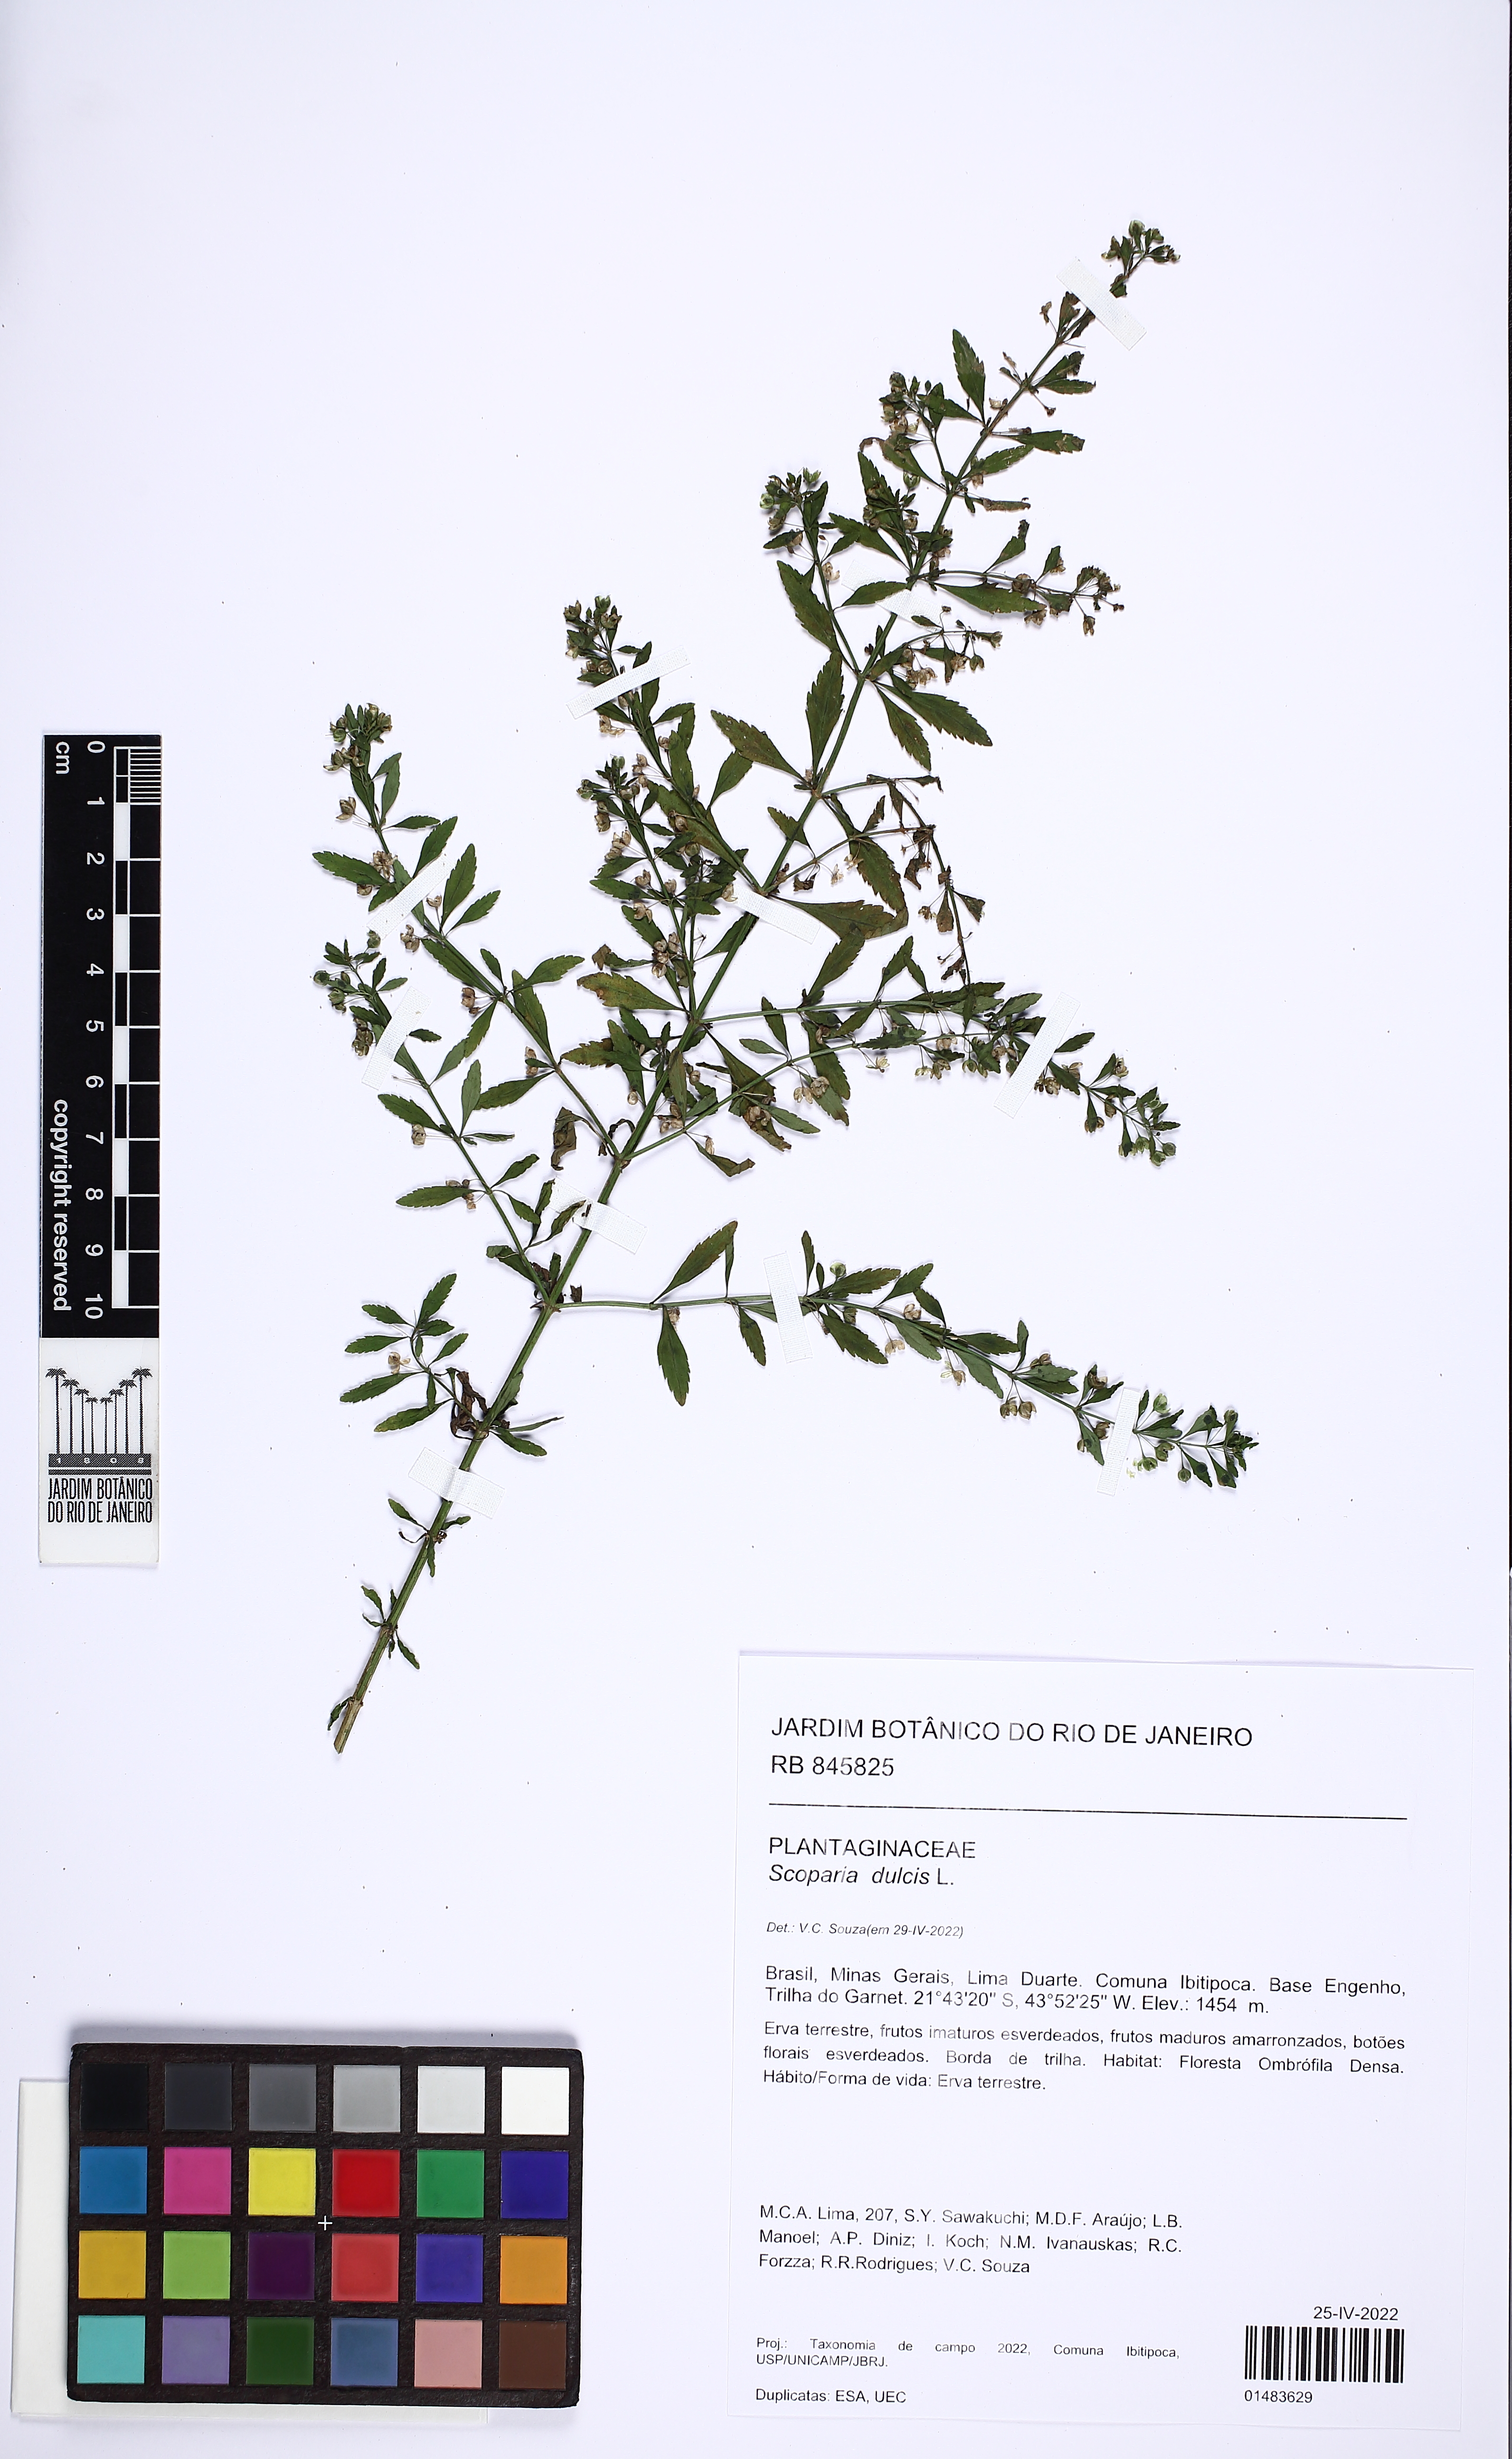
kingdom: Plantae
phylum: Tracheophyta
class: Magnoliopsida
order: Lamiales
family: Plantaginaceae
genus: Scoparia
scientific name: Scoparia dulcis
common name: Scoparia-weed
